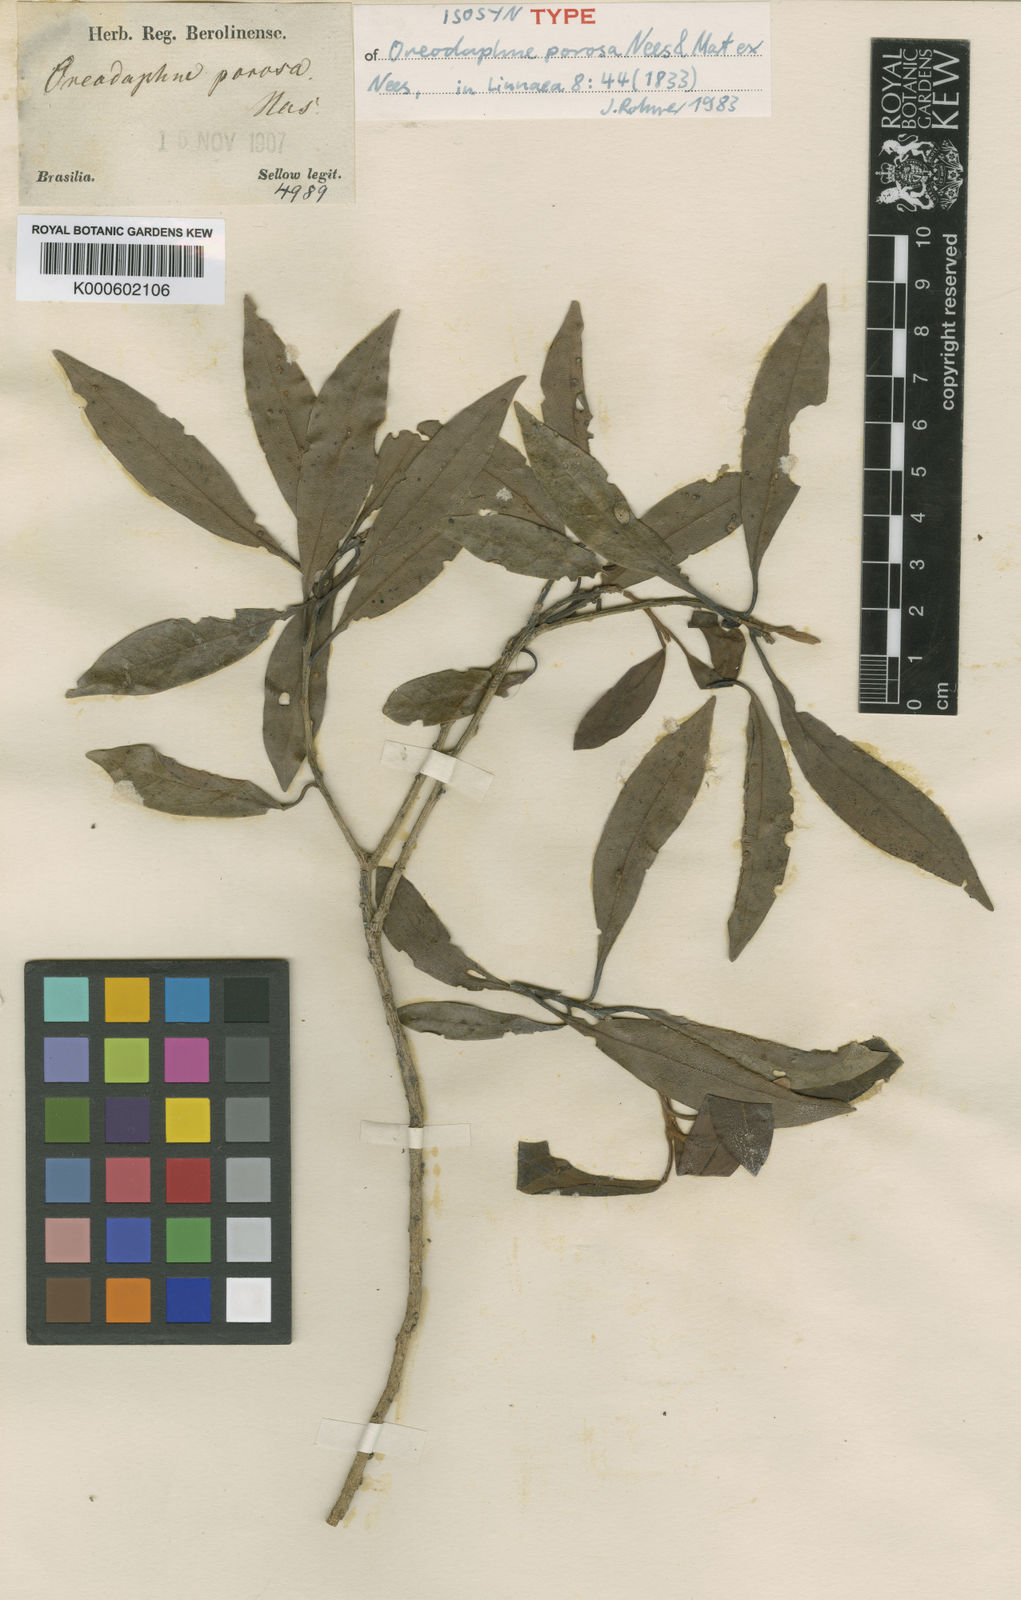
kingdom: Plantae
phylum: Tracheophyta
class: Magnoliopsida
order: Laurales
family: Lauraceae
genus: Ocotea
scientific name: Ocotea porosa
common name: Brazilian-walnut
